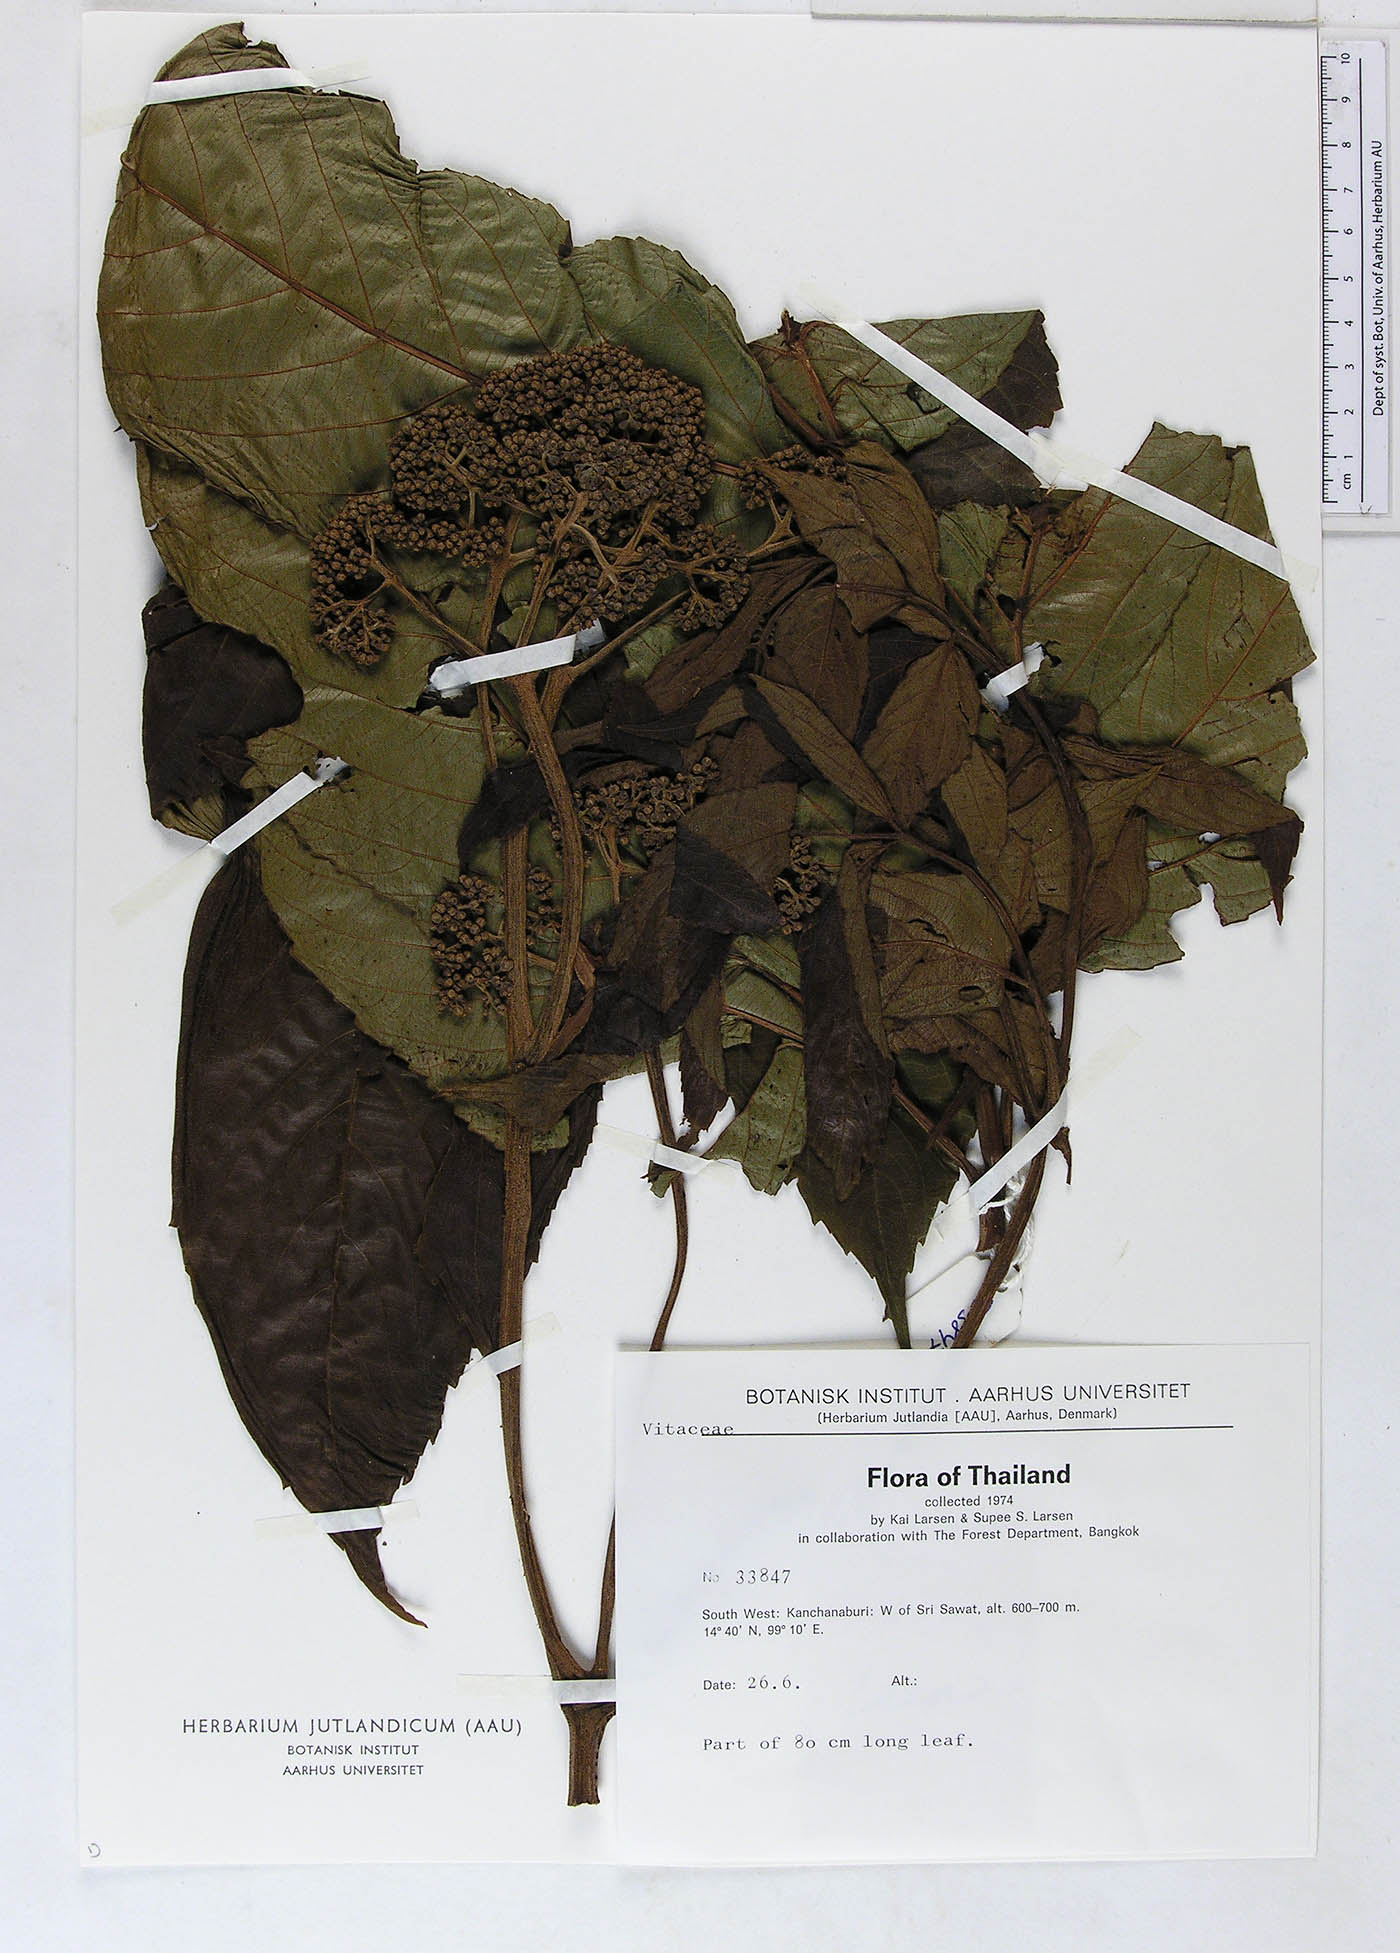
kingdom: Plantae
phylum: Tracheophyta
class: Magnoliopsida
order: Vitales
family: Vitaceae
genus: Leea
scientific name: Leea macrophylla
